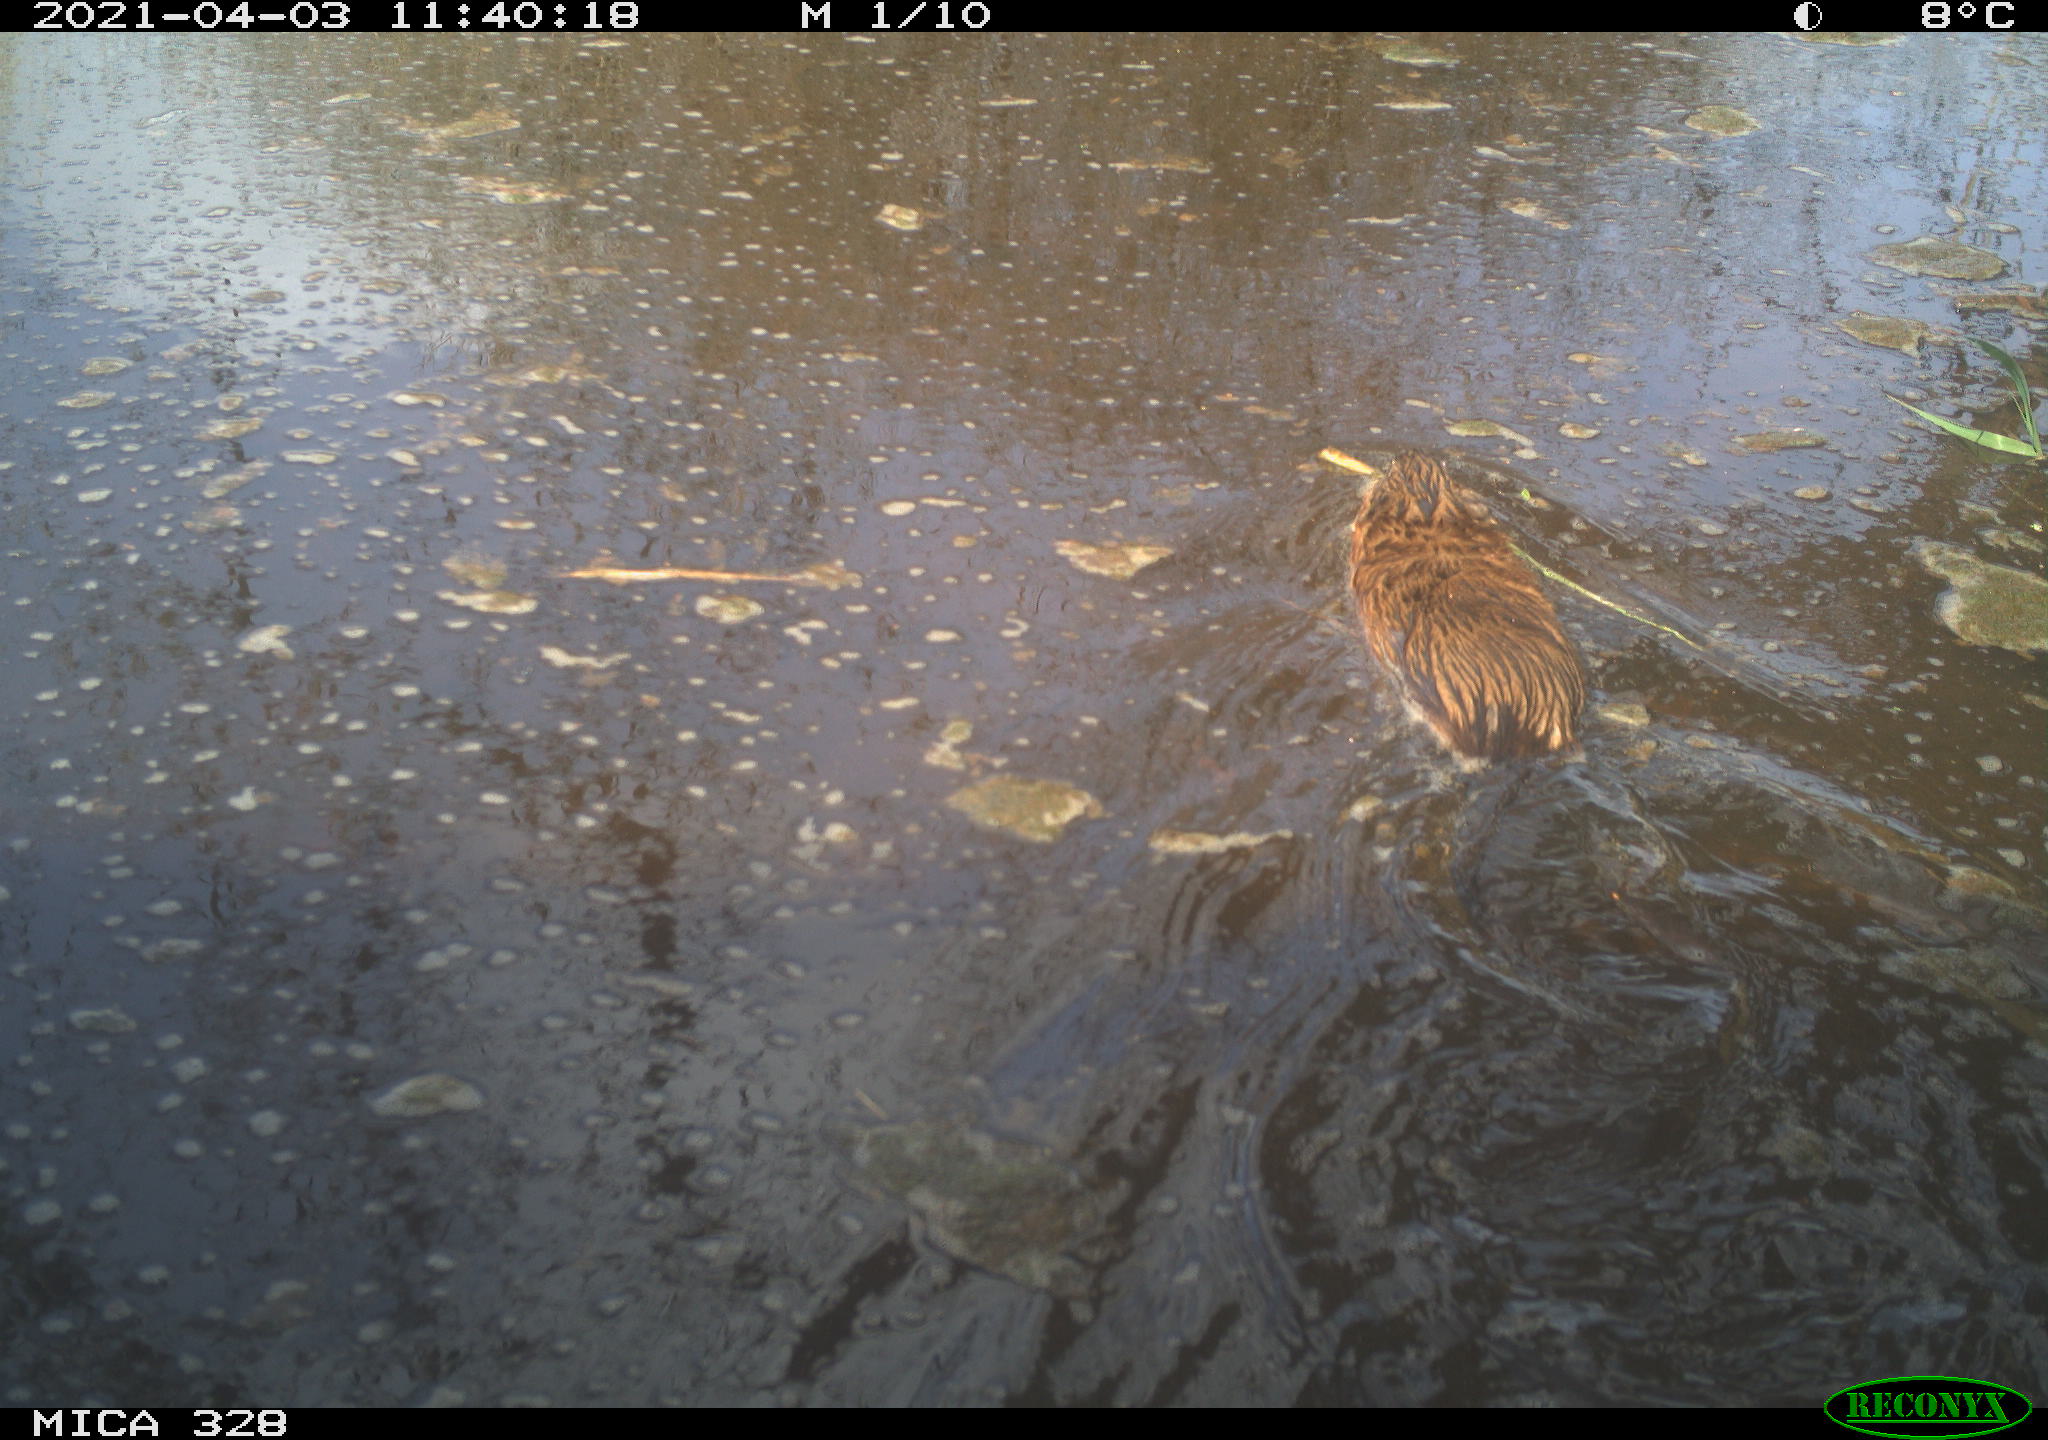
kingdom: Animalia
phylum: Chordata
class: Mammalia
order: Rodentia
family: Cricetidae
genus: Ondatra
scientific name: Ondatra zibethicus
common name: Muskrat
